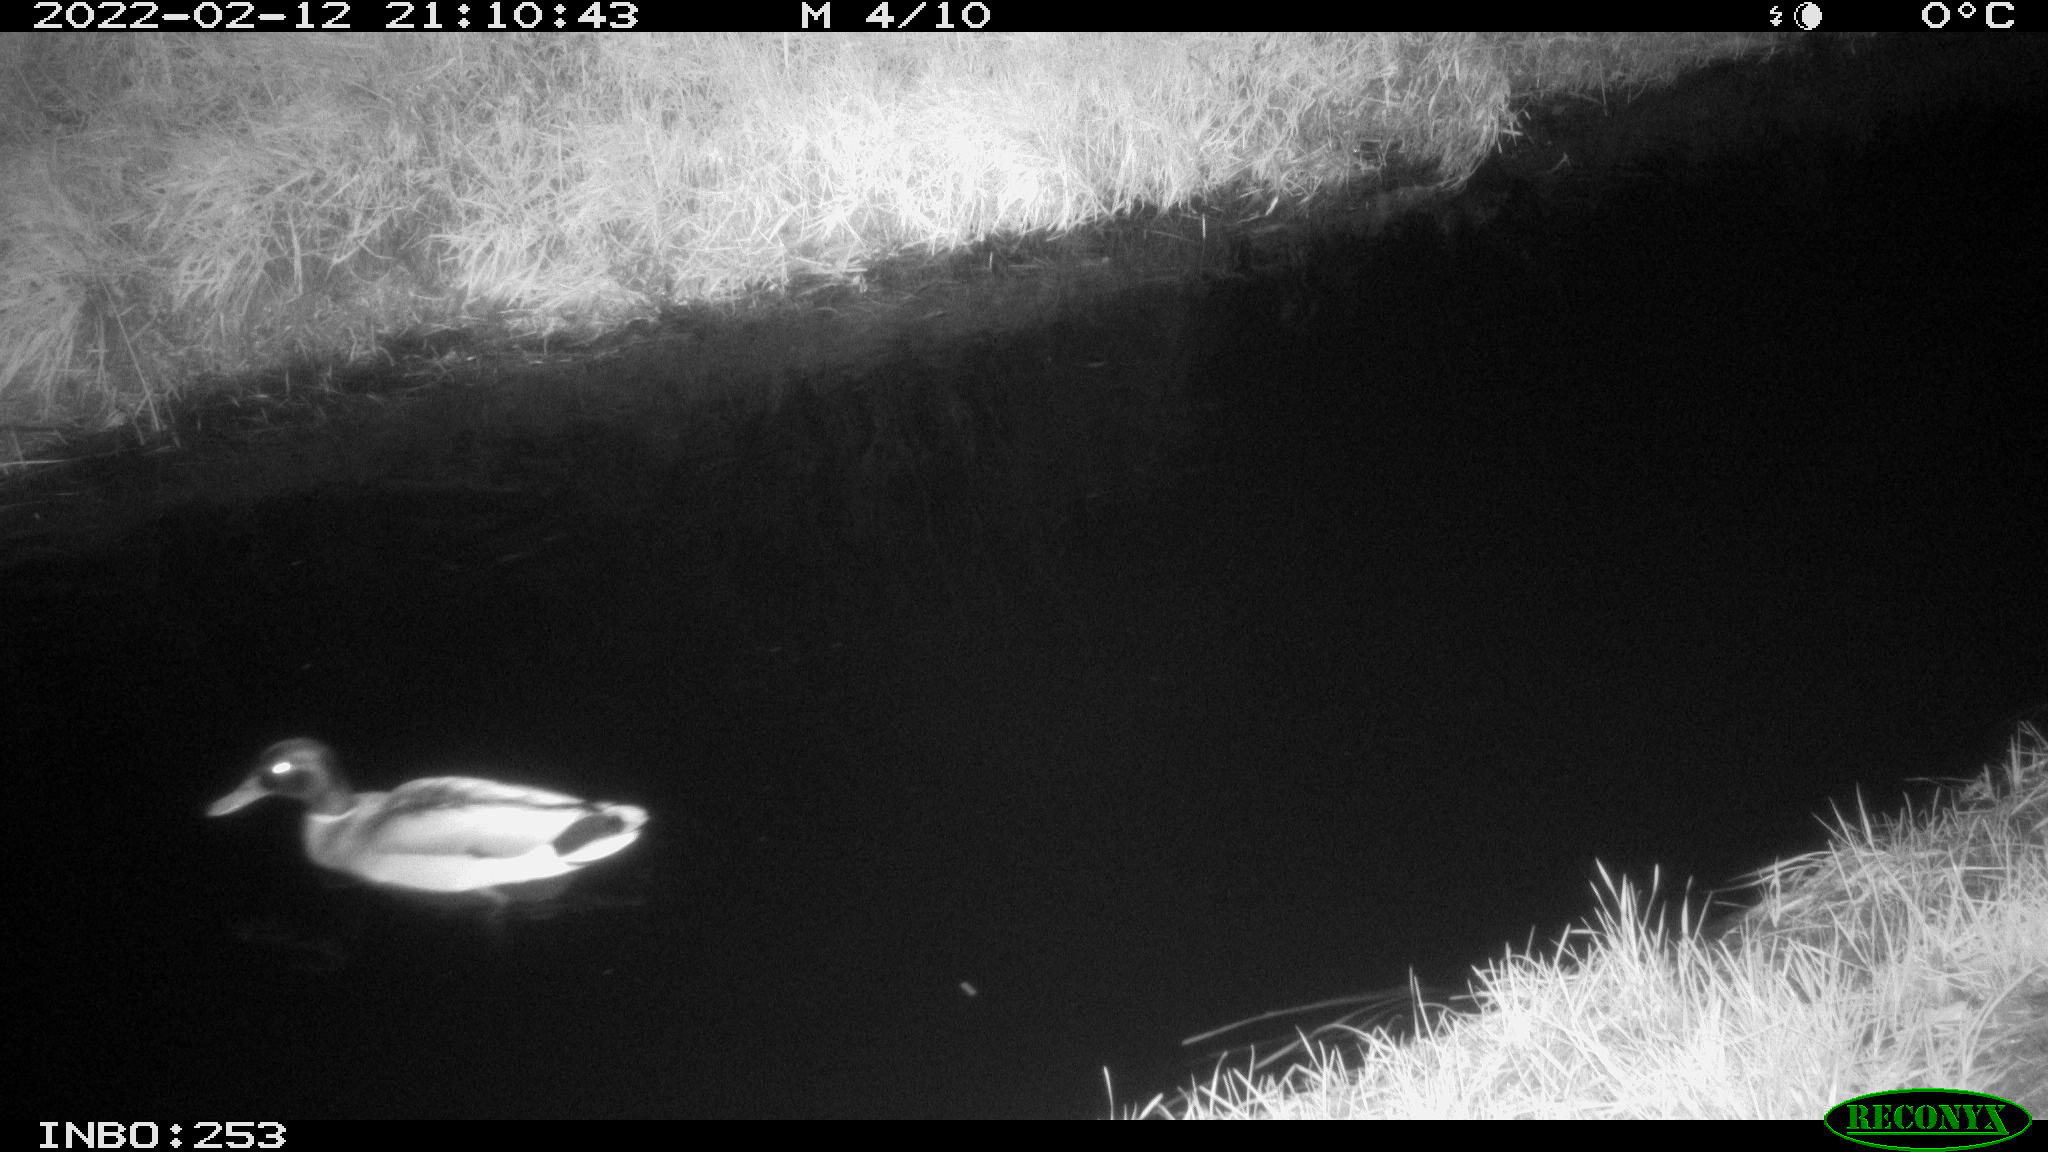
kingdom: Animalia
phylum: Chordata
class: Aves
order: Anseriformes
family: Anatidae
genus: Anas
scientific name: Anas platyrhynchos
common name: Mallard
